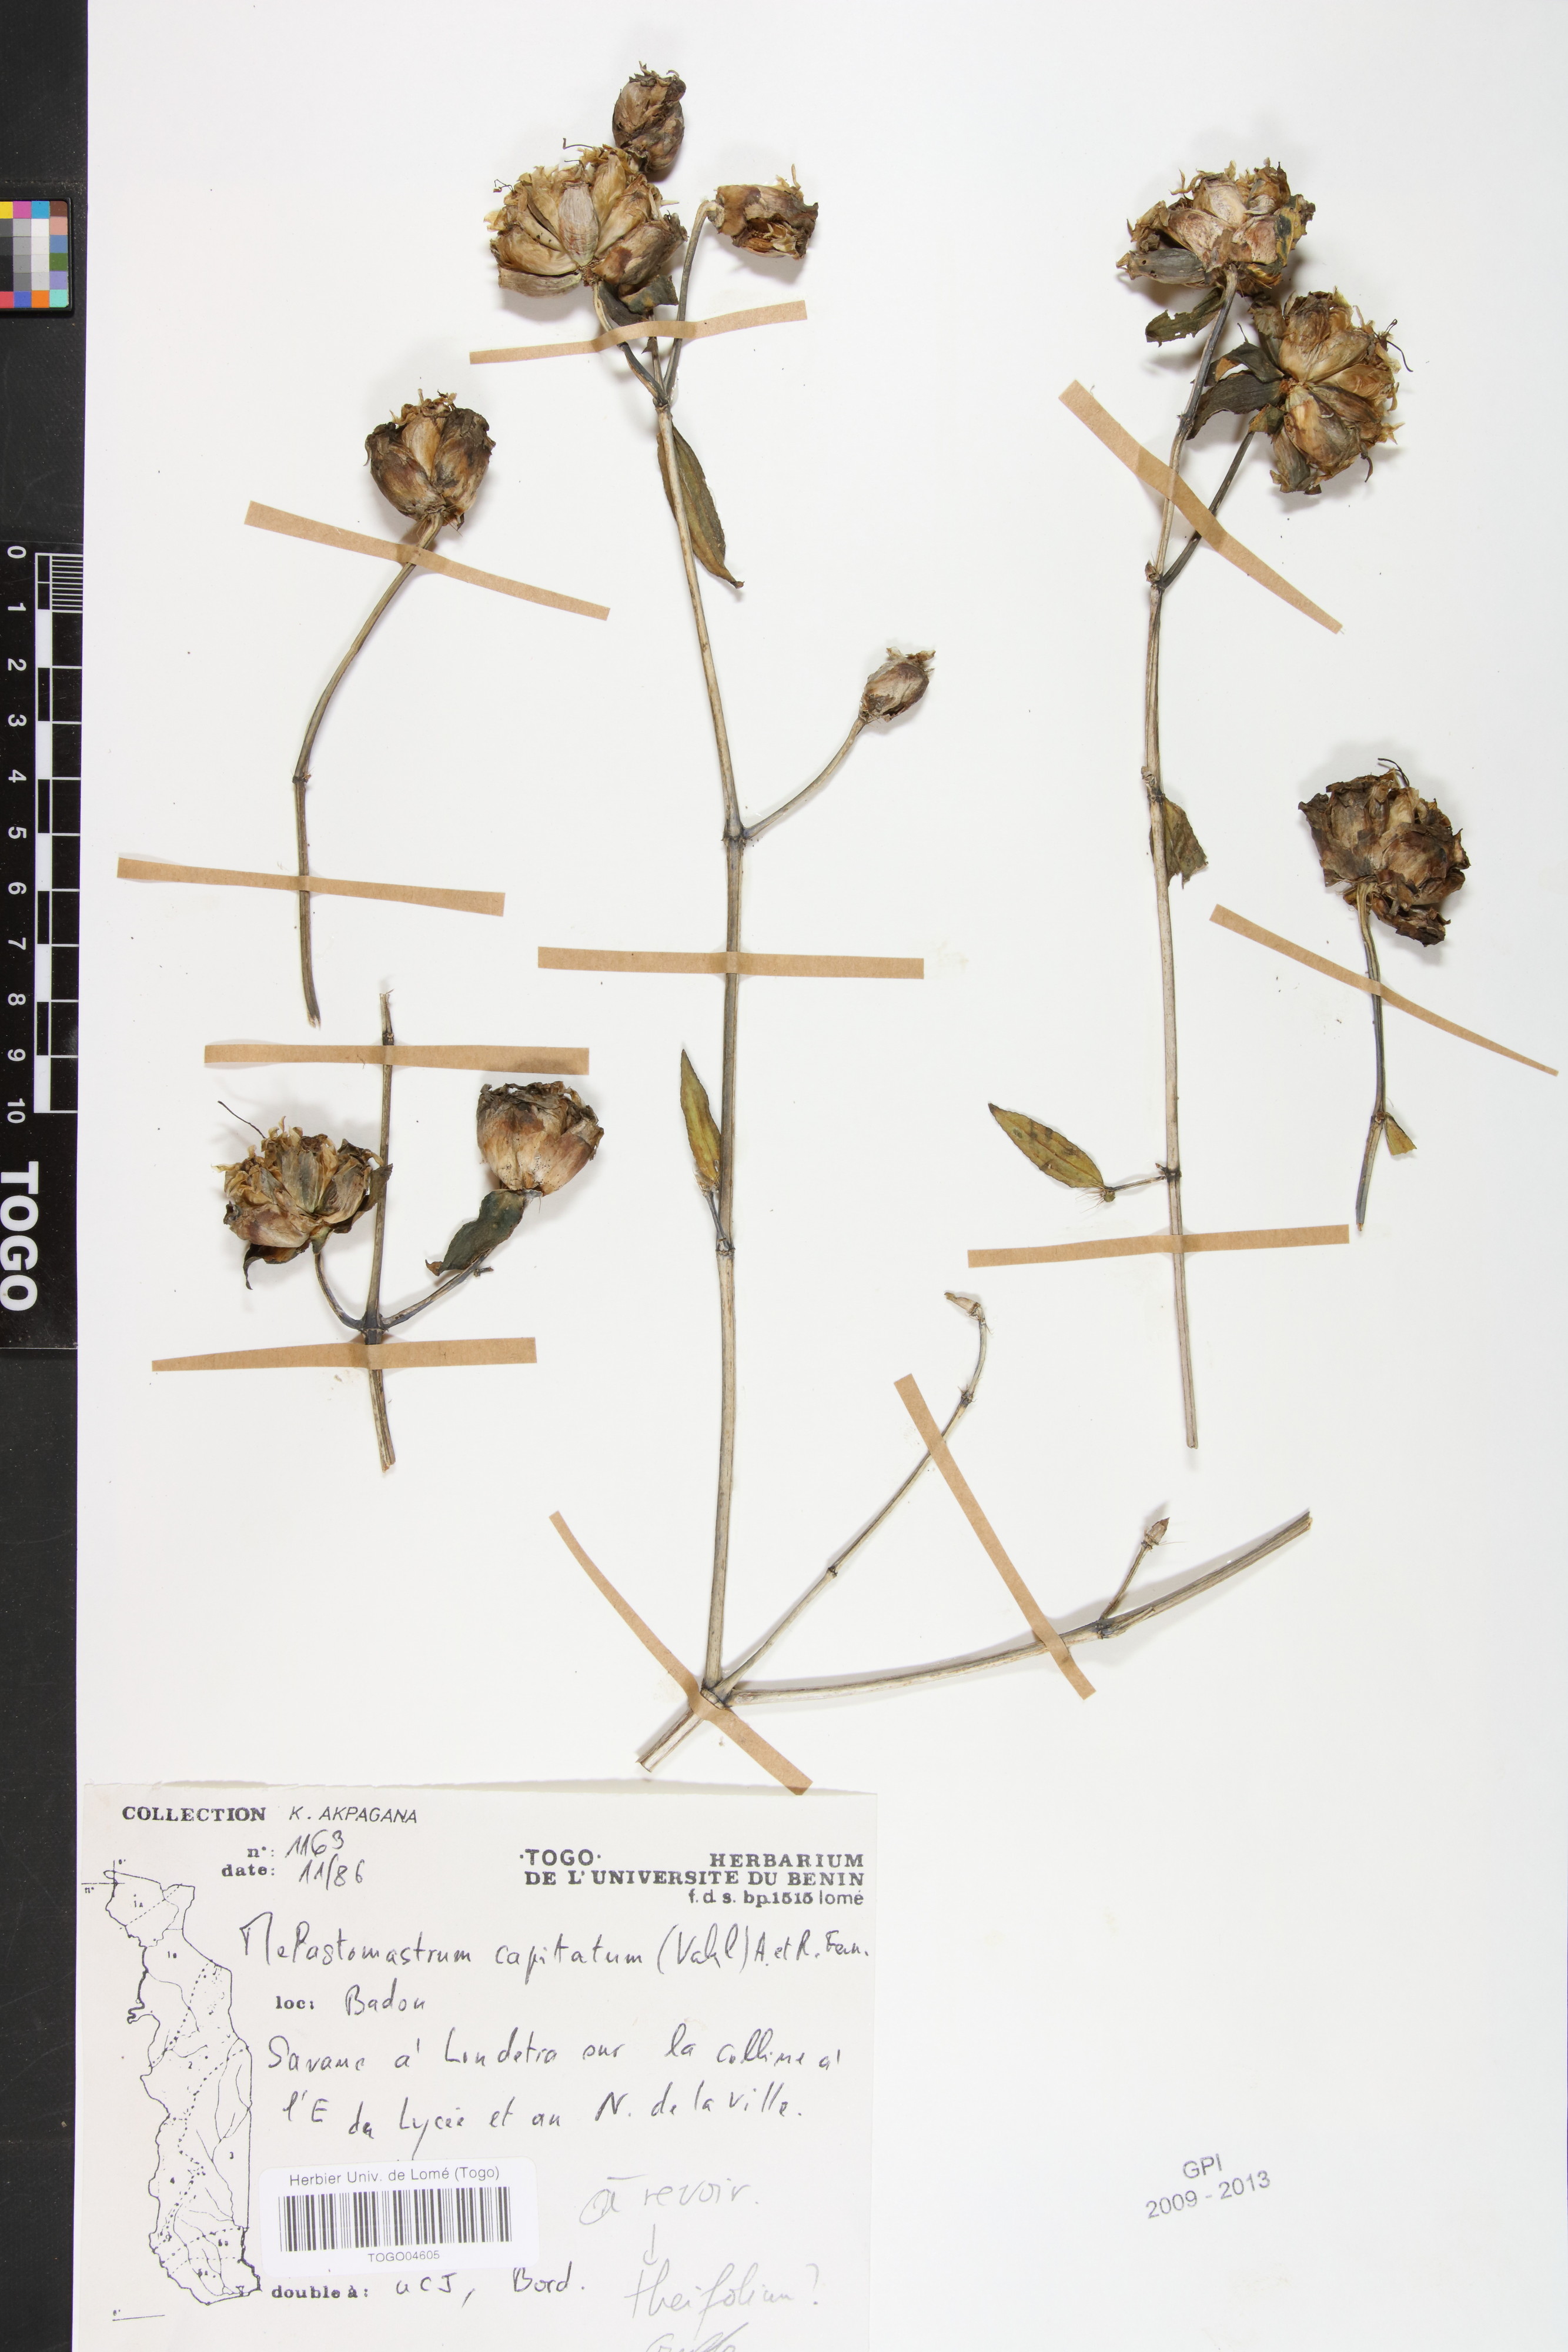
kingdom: Plantae
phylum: Tracheophyta
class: Magnoliopsida
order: Myrtales
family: Melastomataceae
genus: Melastomastrum
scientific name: Melastomastrum capitatum
